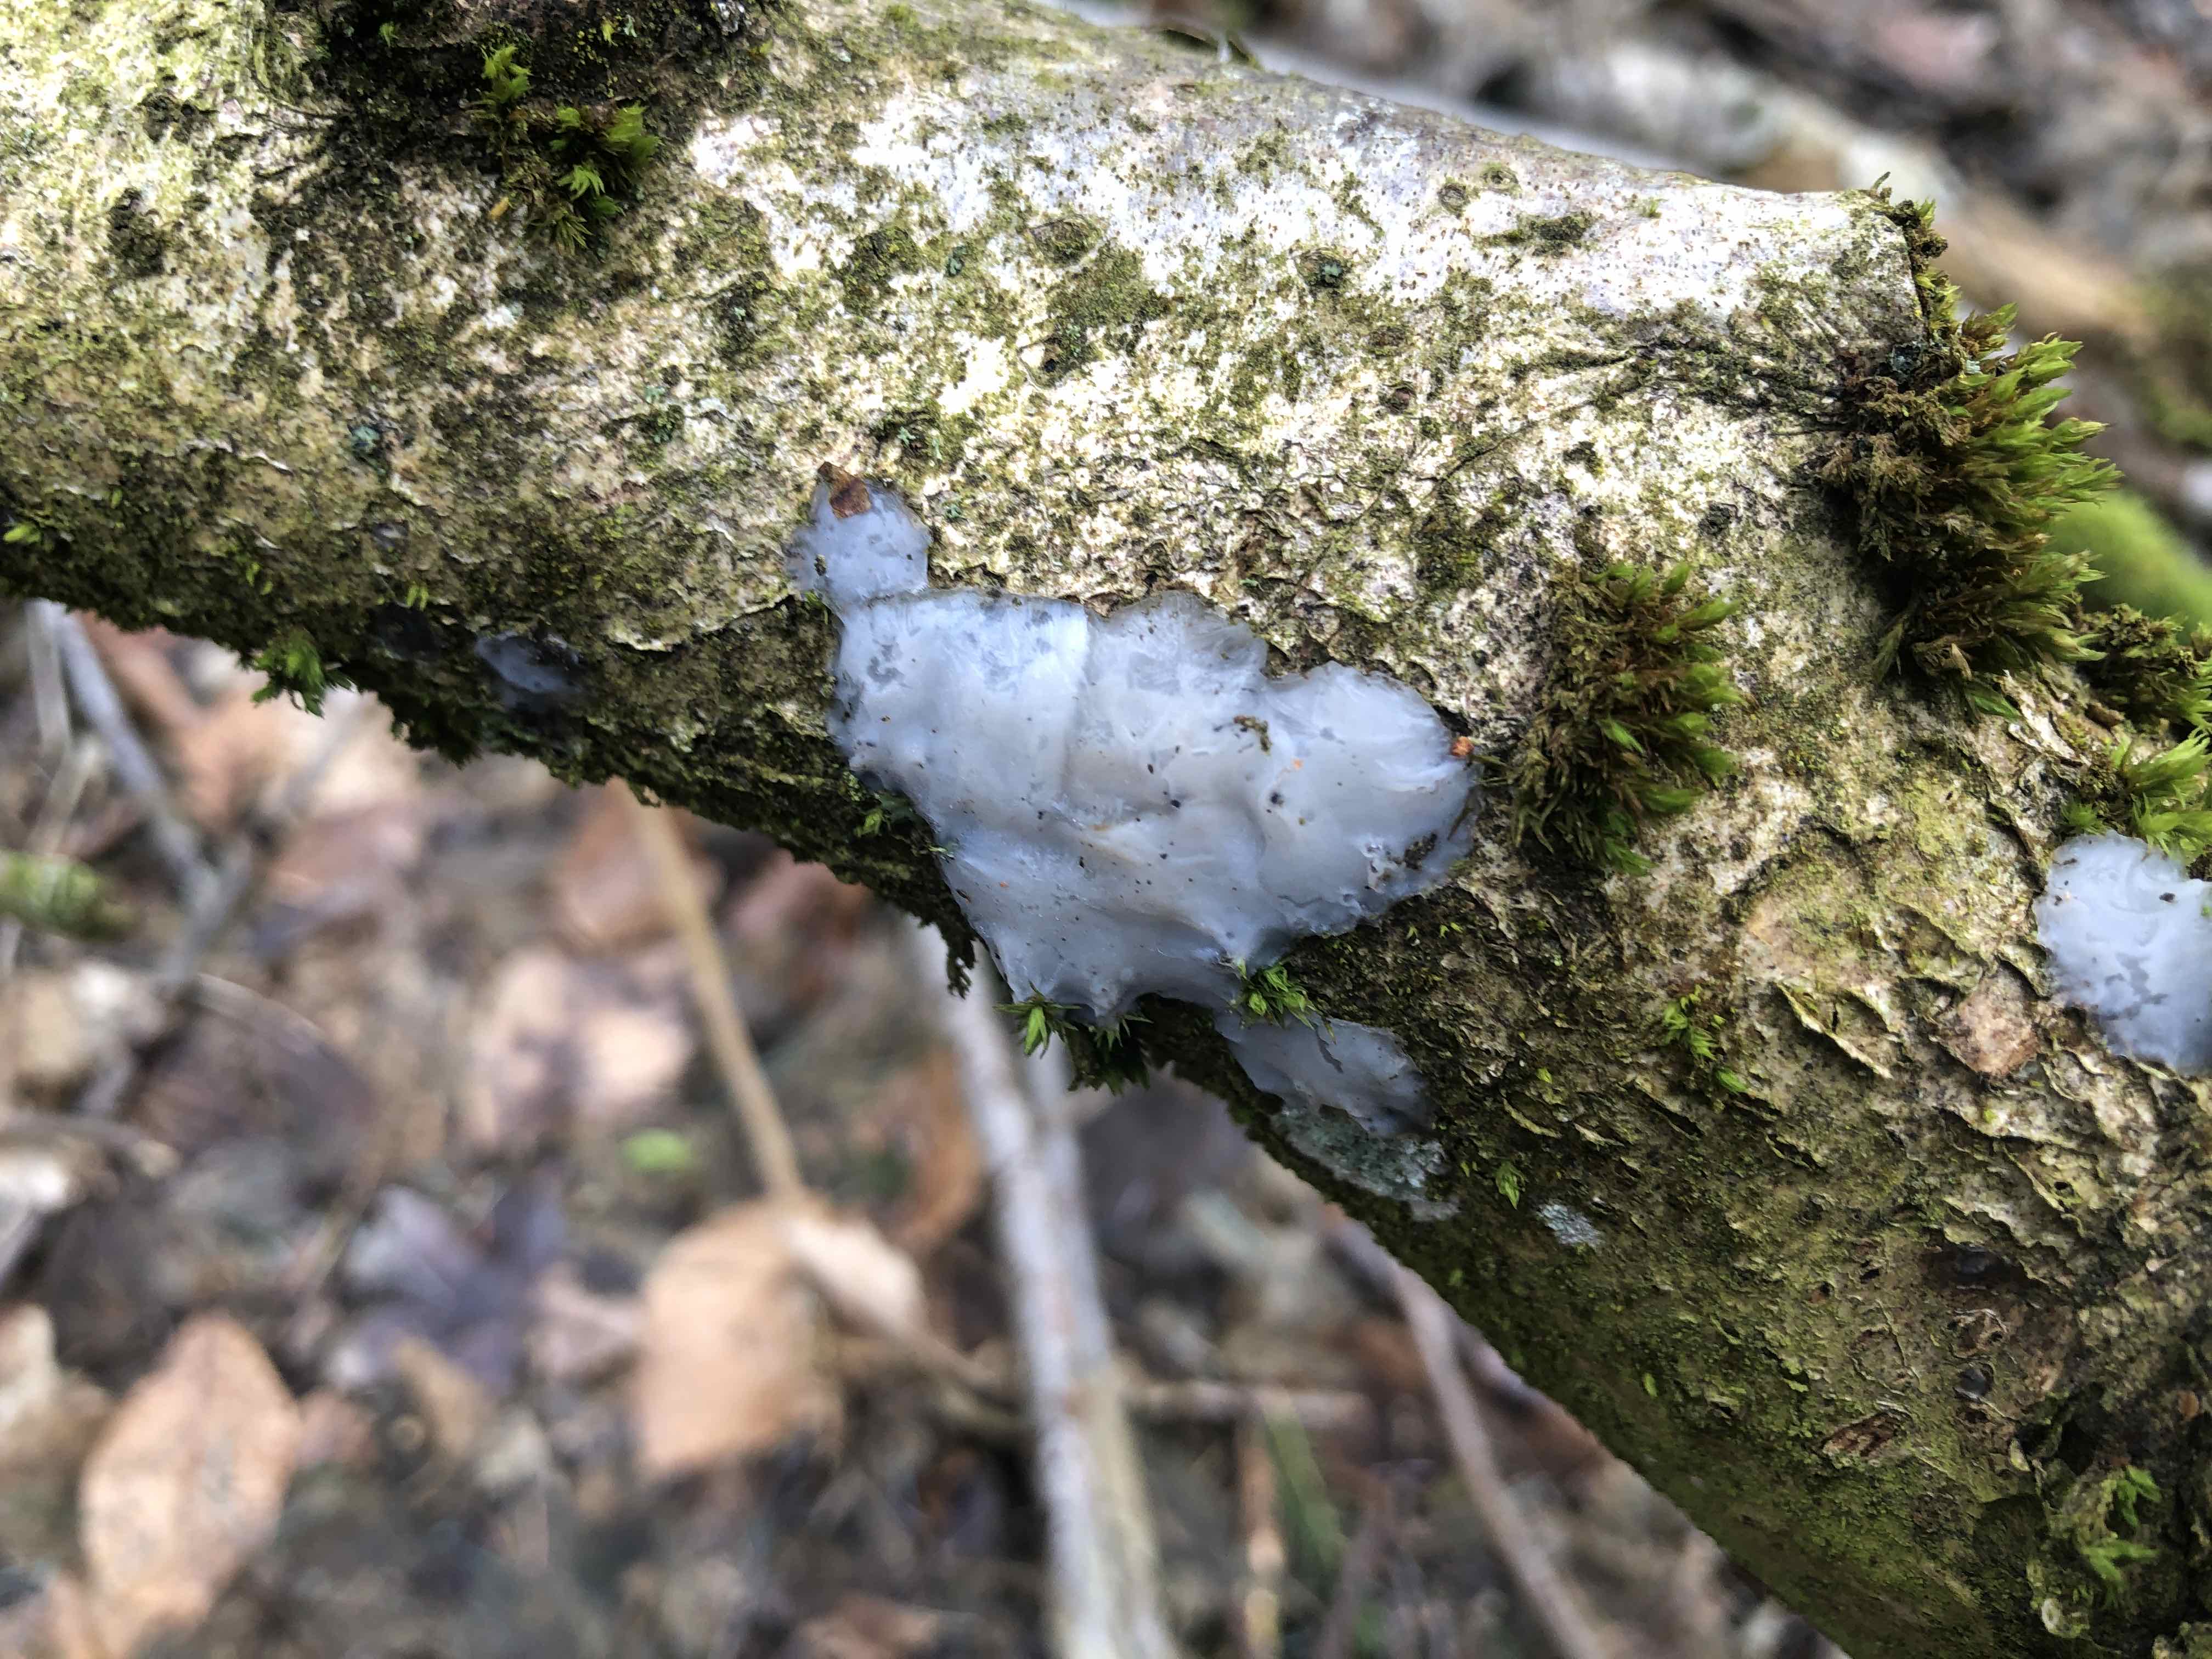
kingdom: Fungi
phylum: Basidiomycota
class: Agaricomycetes
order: Auriculariales
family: Auriculariaceae
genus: Exidia
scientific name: Exidia thuretiana
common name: hvidlig bævretop
